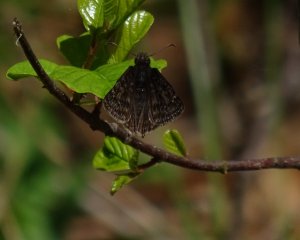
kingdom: Animalia
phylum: Arthropoda
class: Insecta
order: Lepidoptera
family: Hesperiidae
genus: Gesta
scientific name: Gesta
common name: Wild Indigo Duskywing
